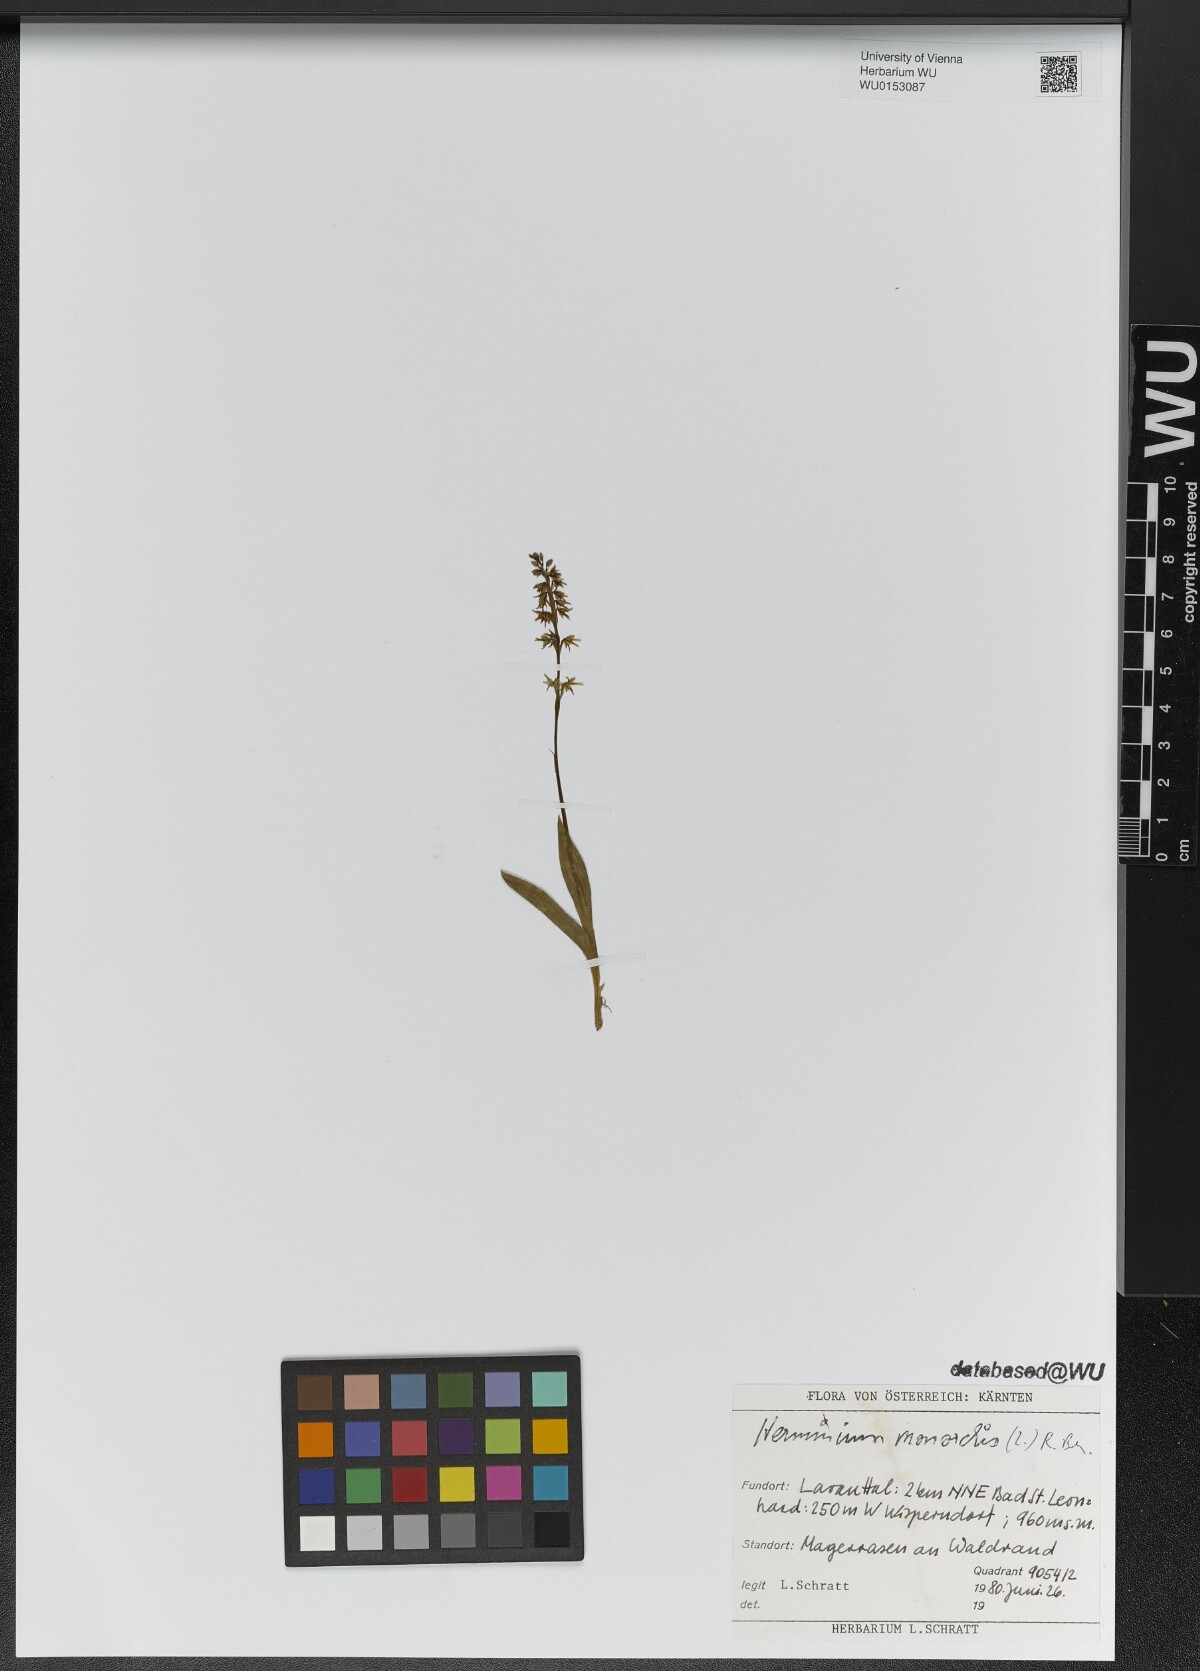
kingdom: Plantae
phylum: Tracheophyta
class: Liliopsida
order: Asparagales
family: Orchidaceae
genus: Herminium
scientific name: Herminium monorchis
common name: Musk orchid
